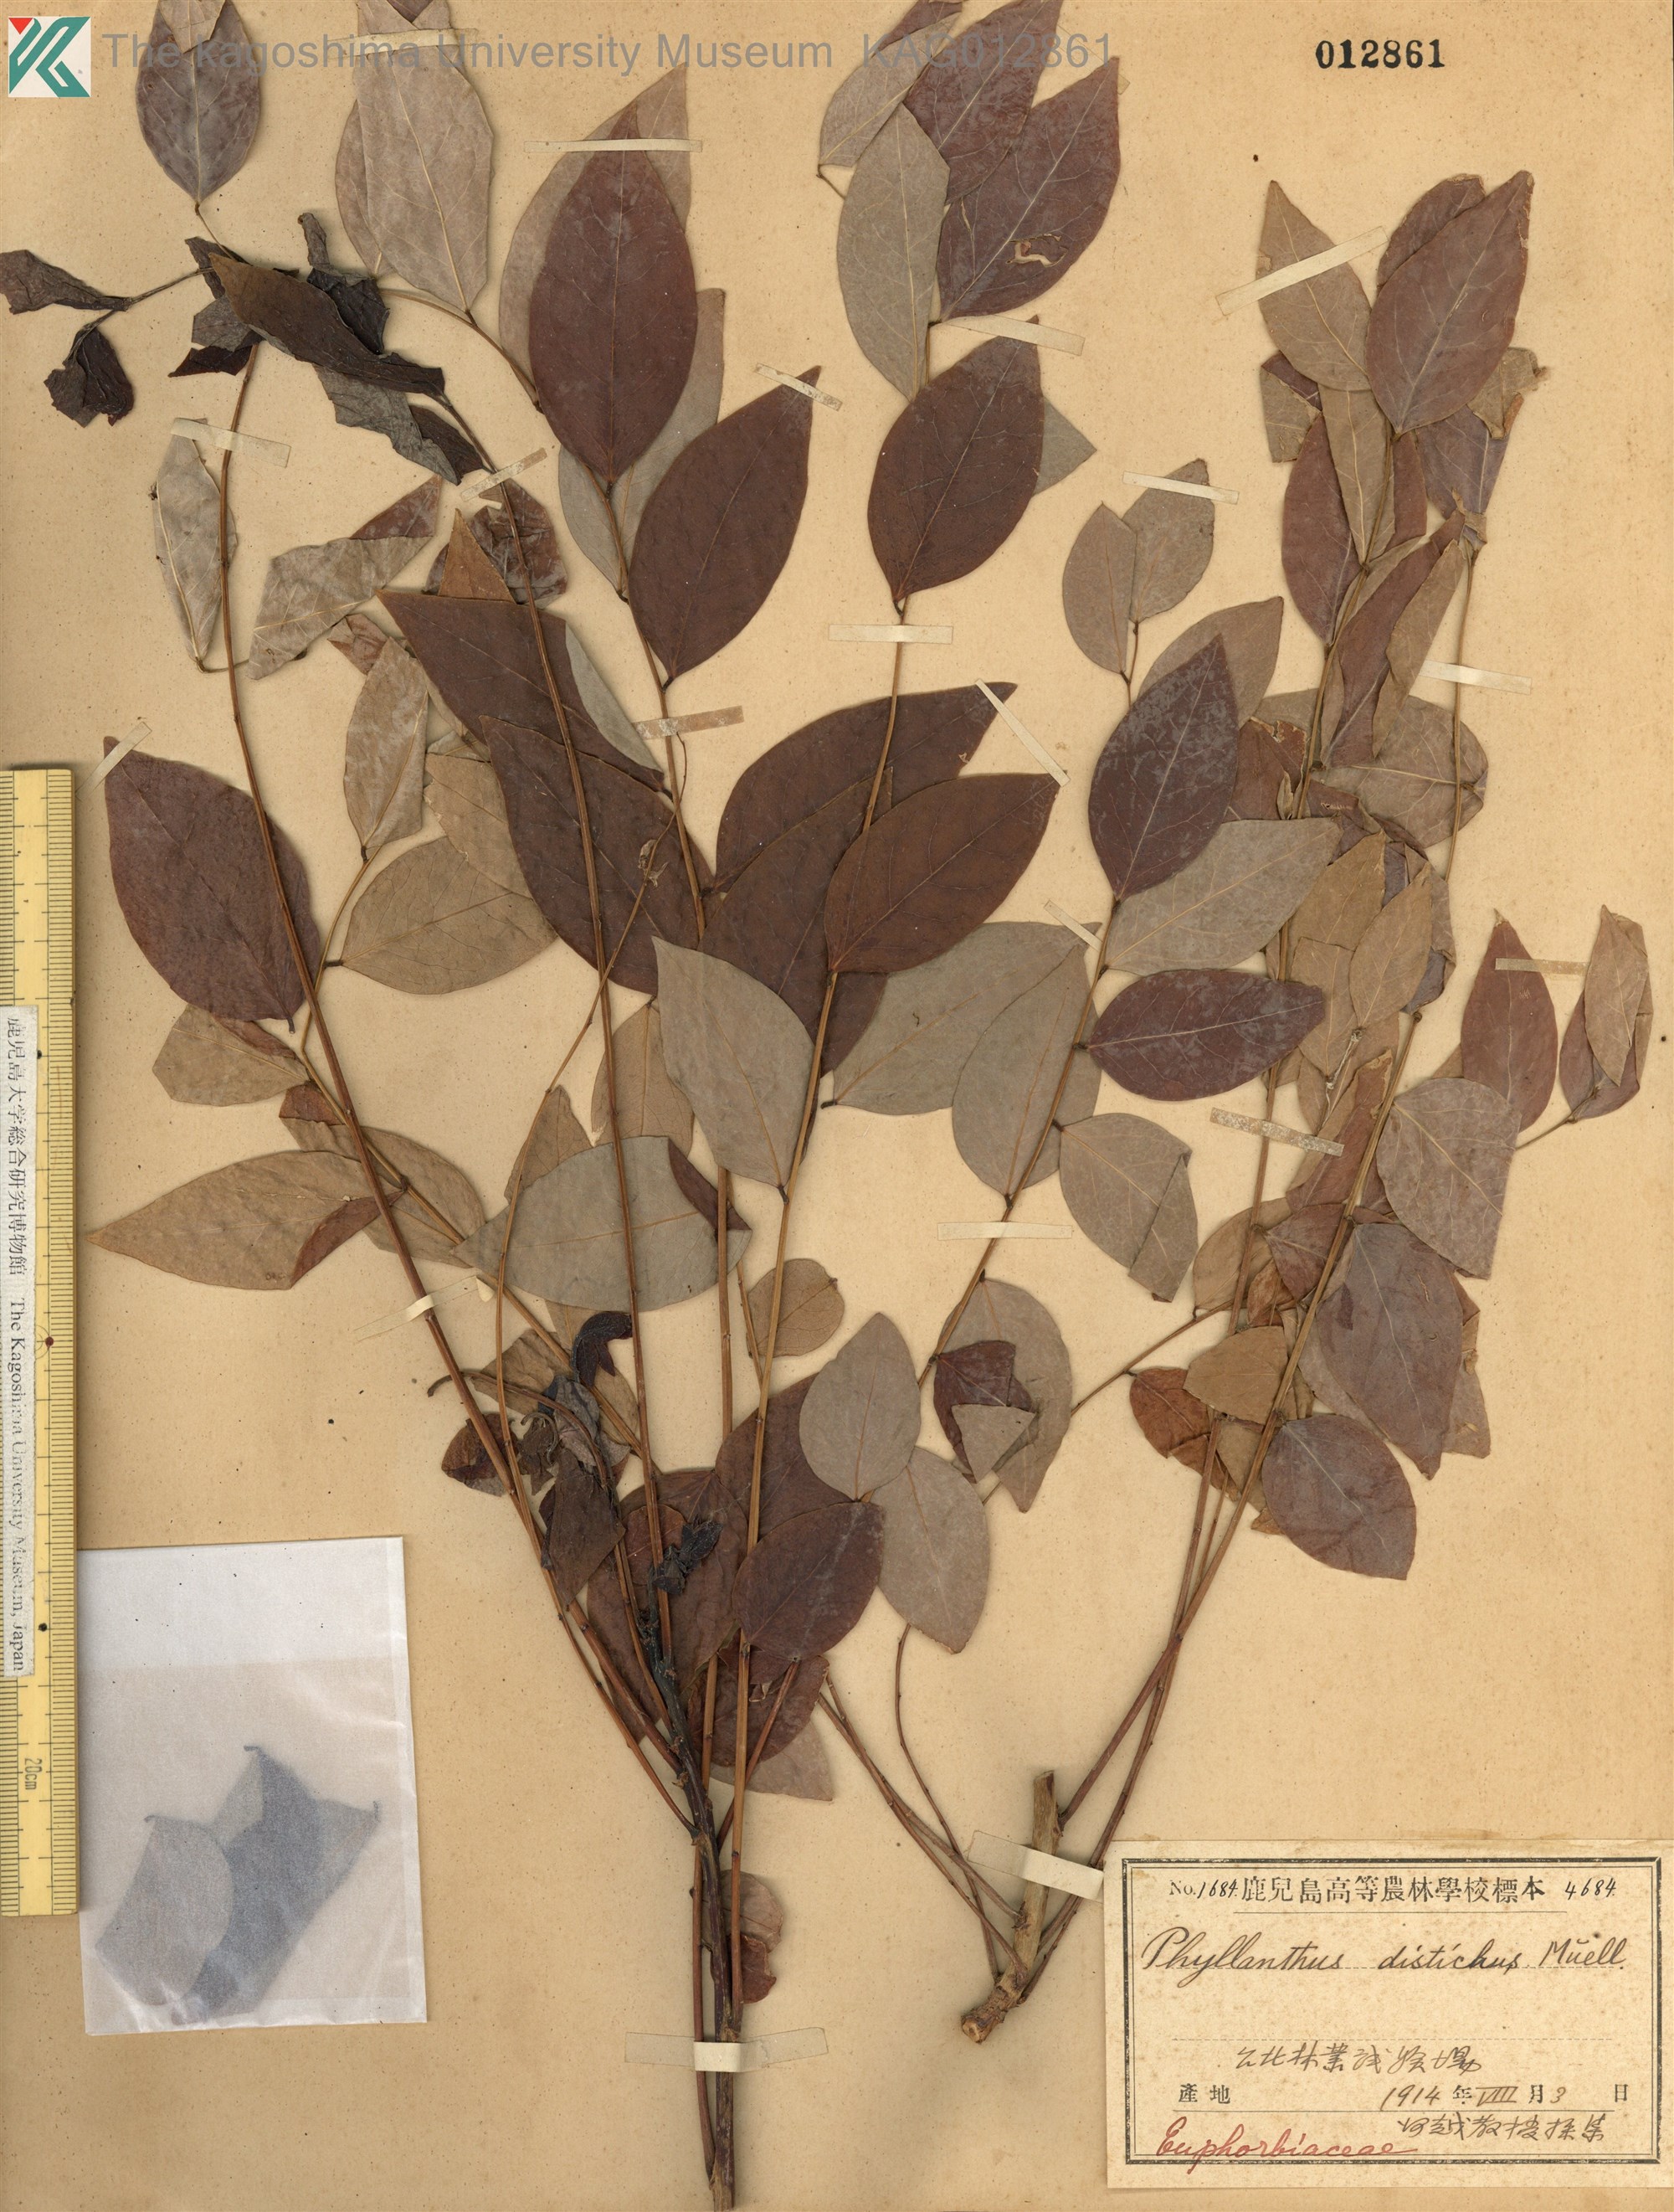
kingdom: Plantae
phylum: Tracheophyta
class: Magnoliopsida
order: Malpighiales
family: Phyllanthaceae
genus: Phyllanthus
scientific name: Phyllanthus distichus
